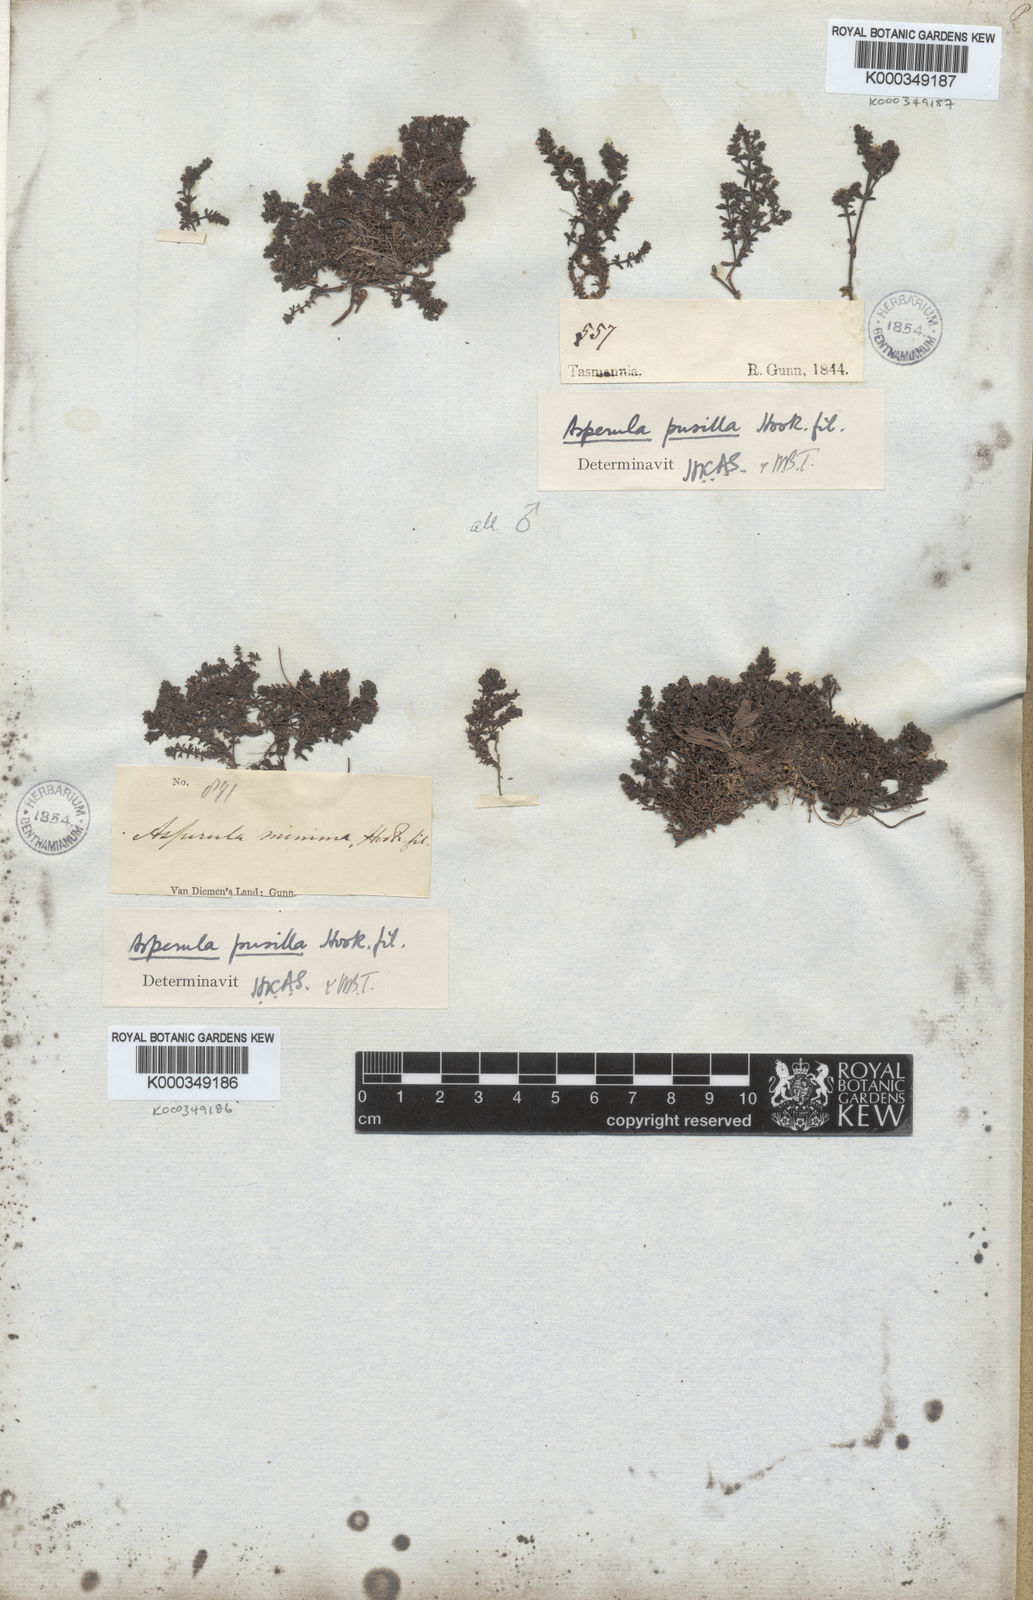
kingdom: Plantae
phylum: Tracheophyta
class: Magnoliopsida
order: Gentianales
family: Rubiaceae
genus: Asperula
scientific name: Asperula pusilla
